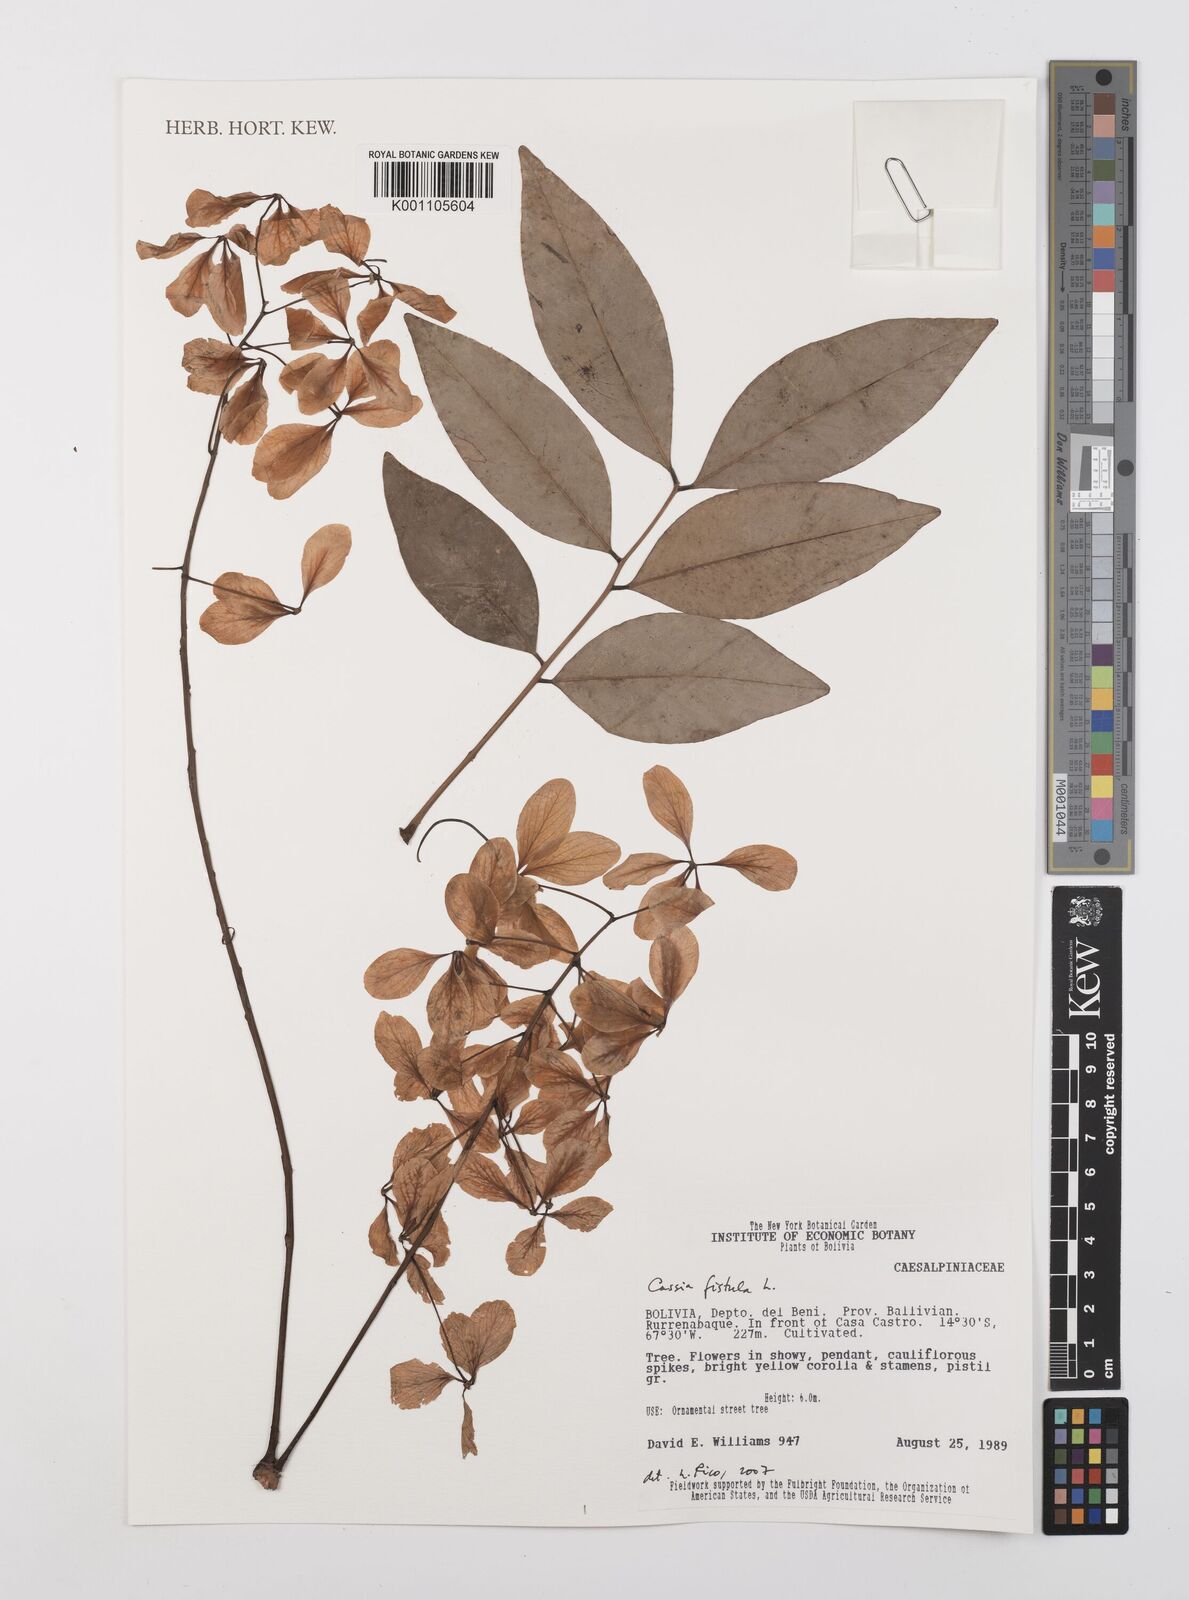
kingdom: Plantae
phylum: Tracheophyta
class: Magnoliopsida
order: Fabales
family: Fabaceae
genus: Cassia
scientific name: Cassia fistula
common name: Golden shower
